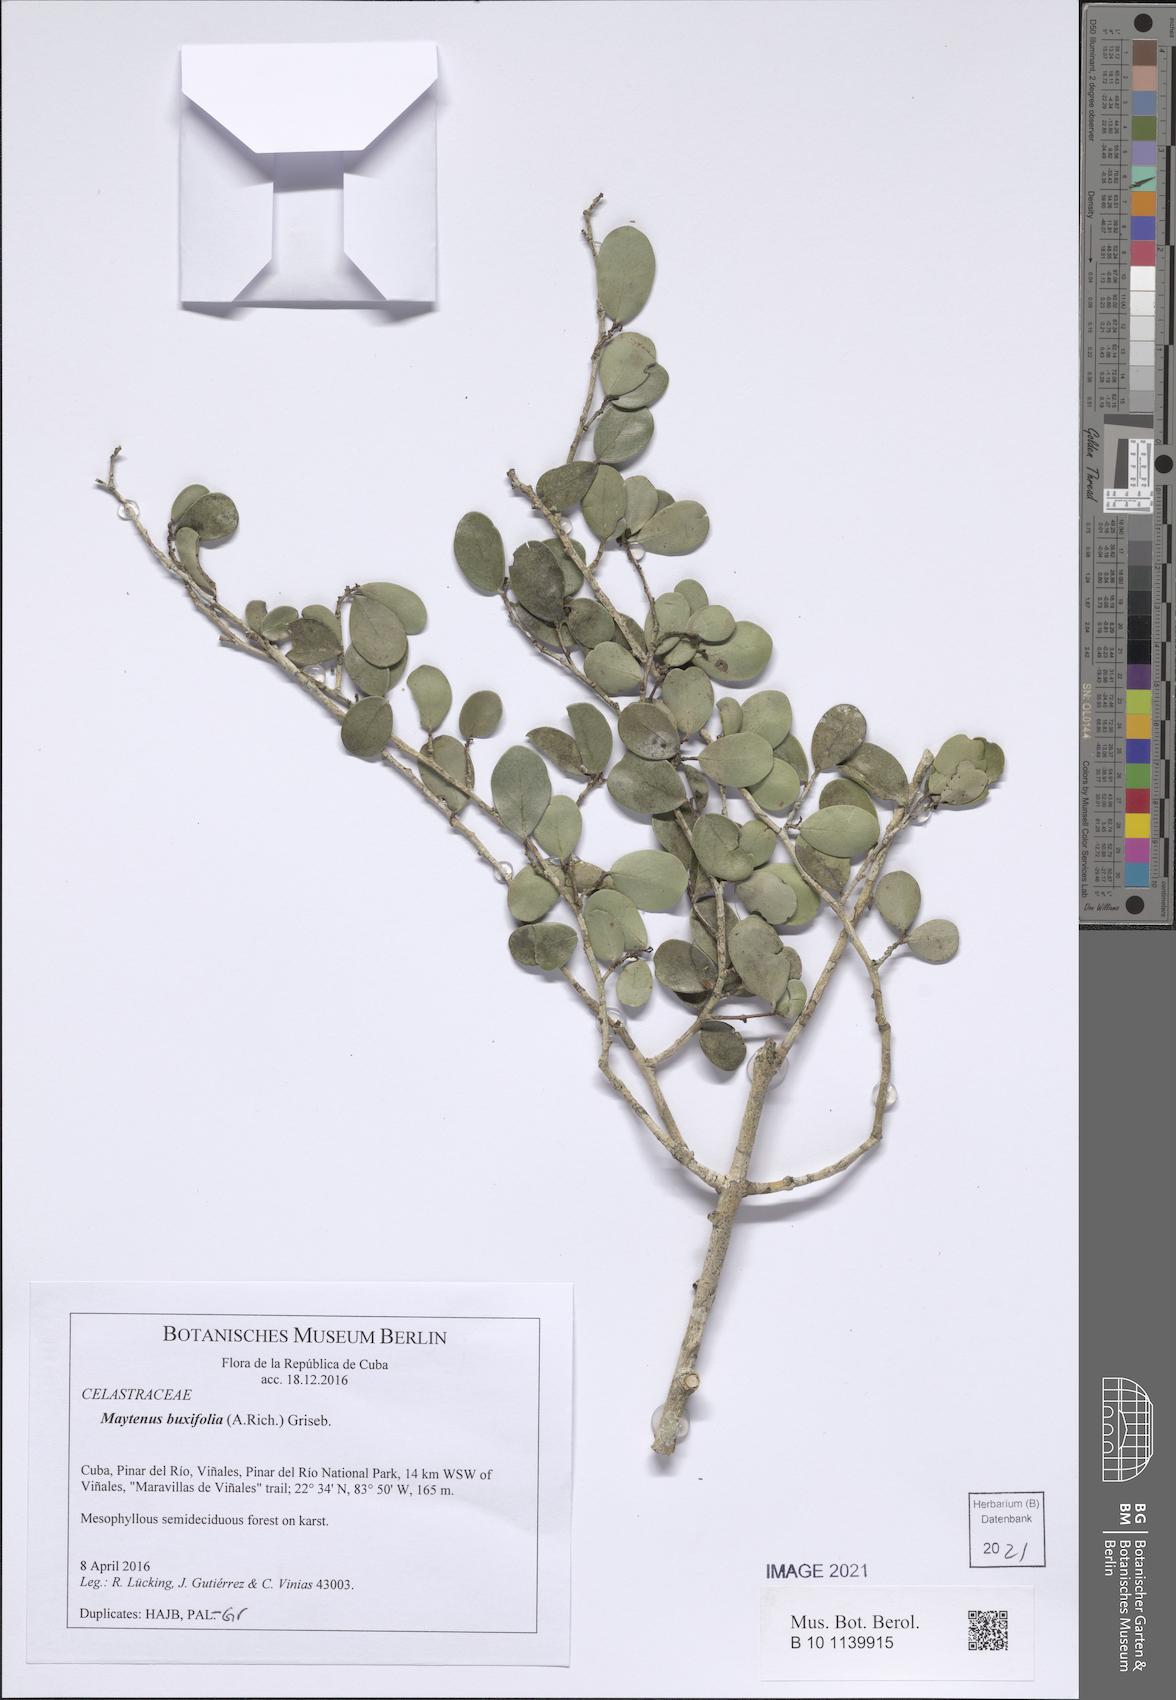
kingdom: Plantae
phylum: Tracheophyta
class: Magnoliopsida
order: Celastrales
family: Celastraceae
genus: Monteverdia
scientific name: Monteverdia buxifolia
